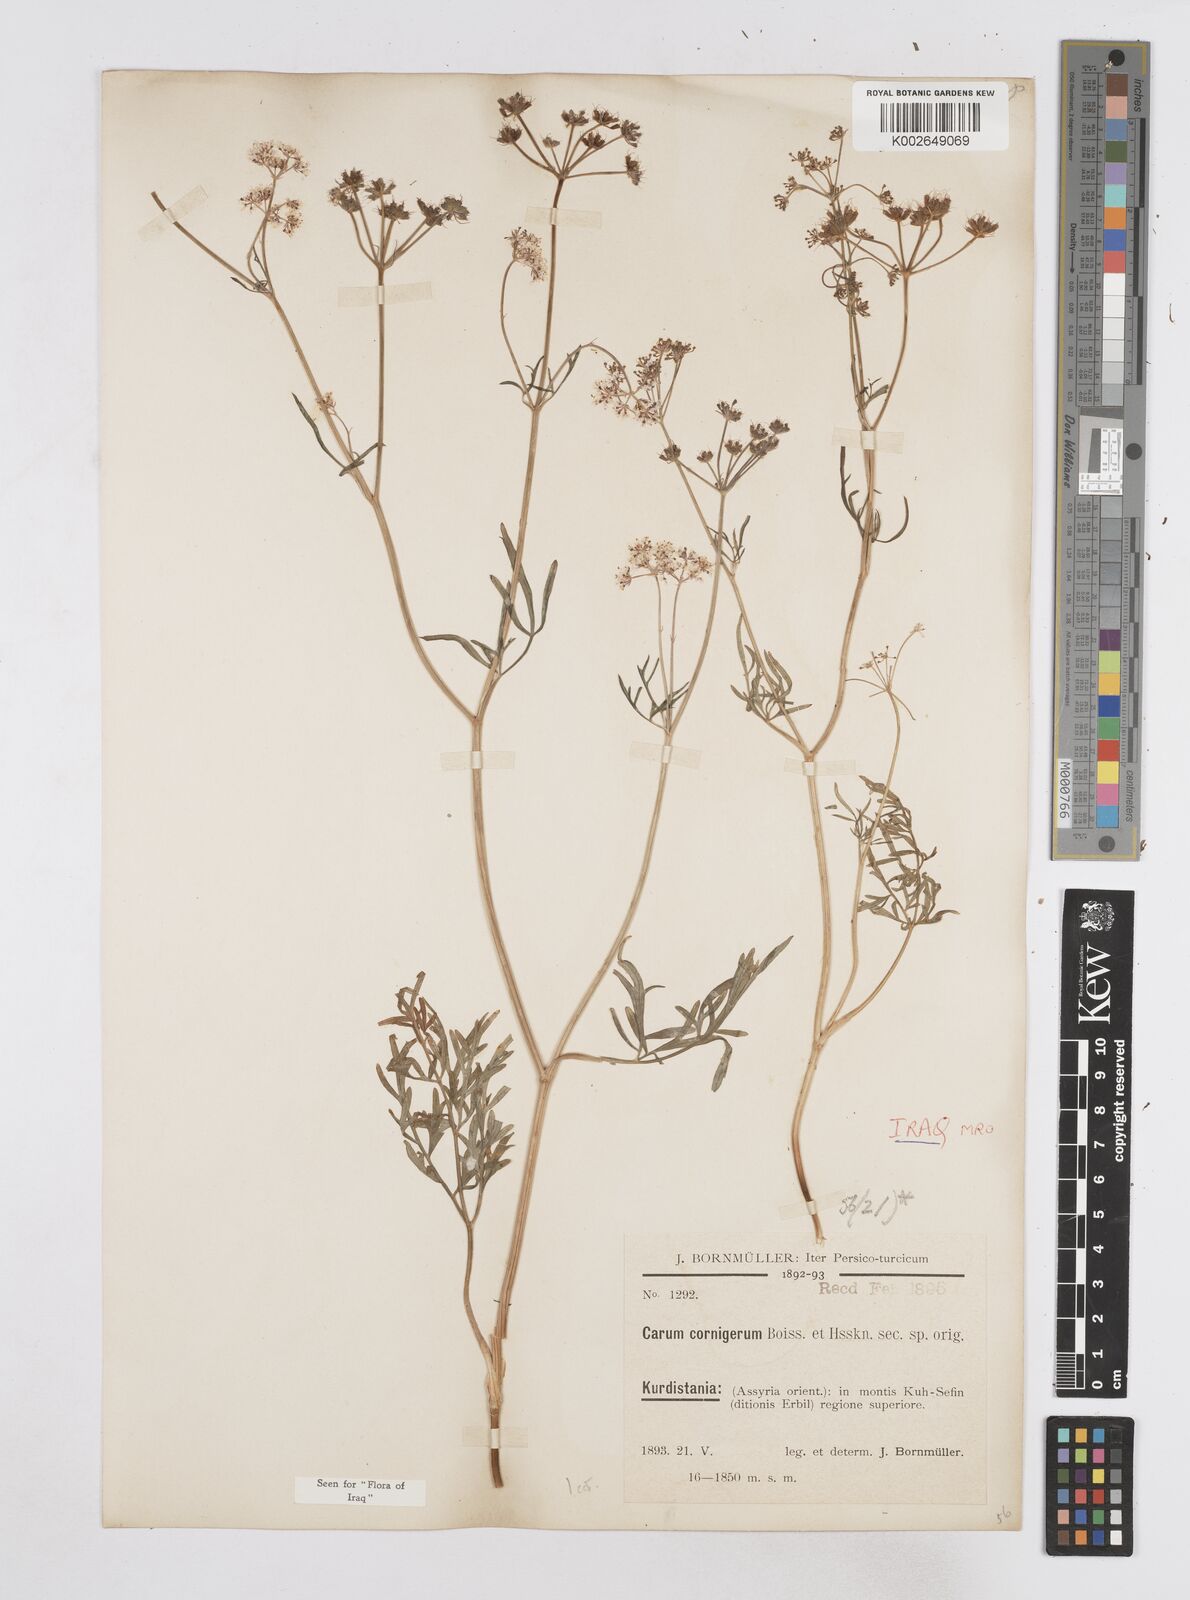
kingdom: Plantae
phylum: Tracheophyta
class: Magnoliopsida
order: Apiales
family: Apiaceae
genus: Bunium
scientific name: Bunium cornigerum
